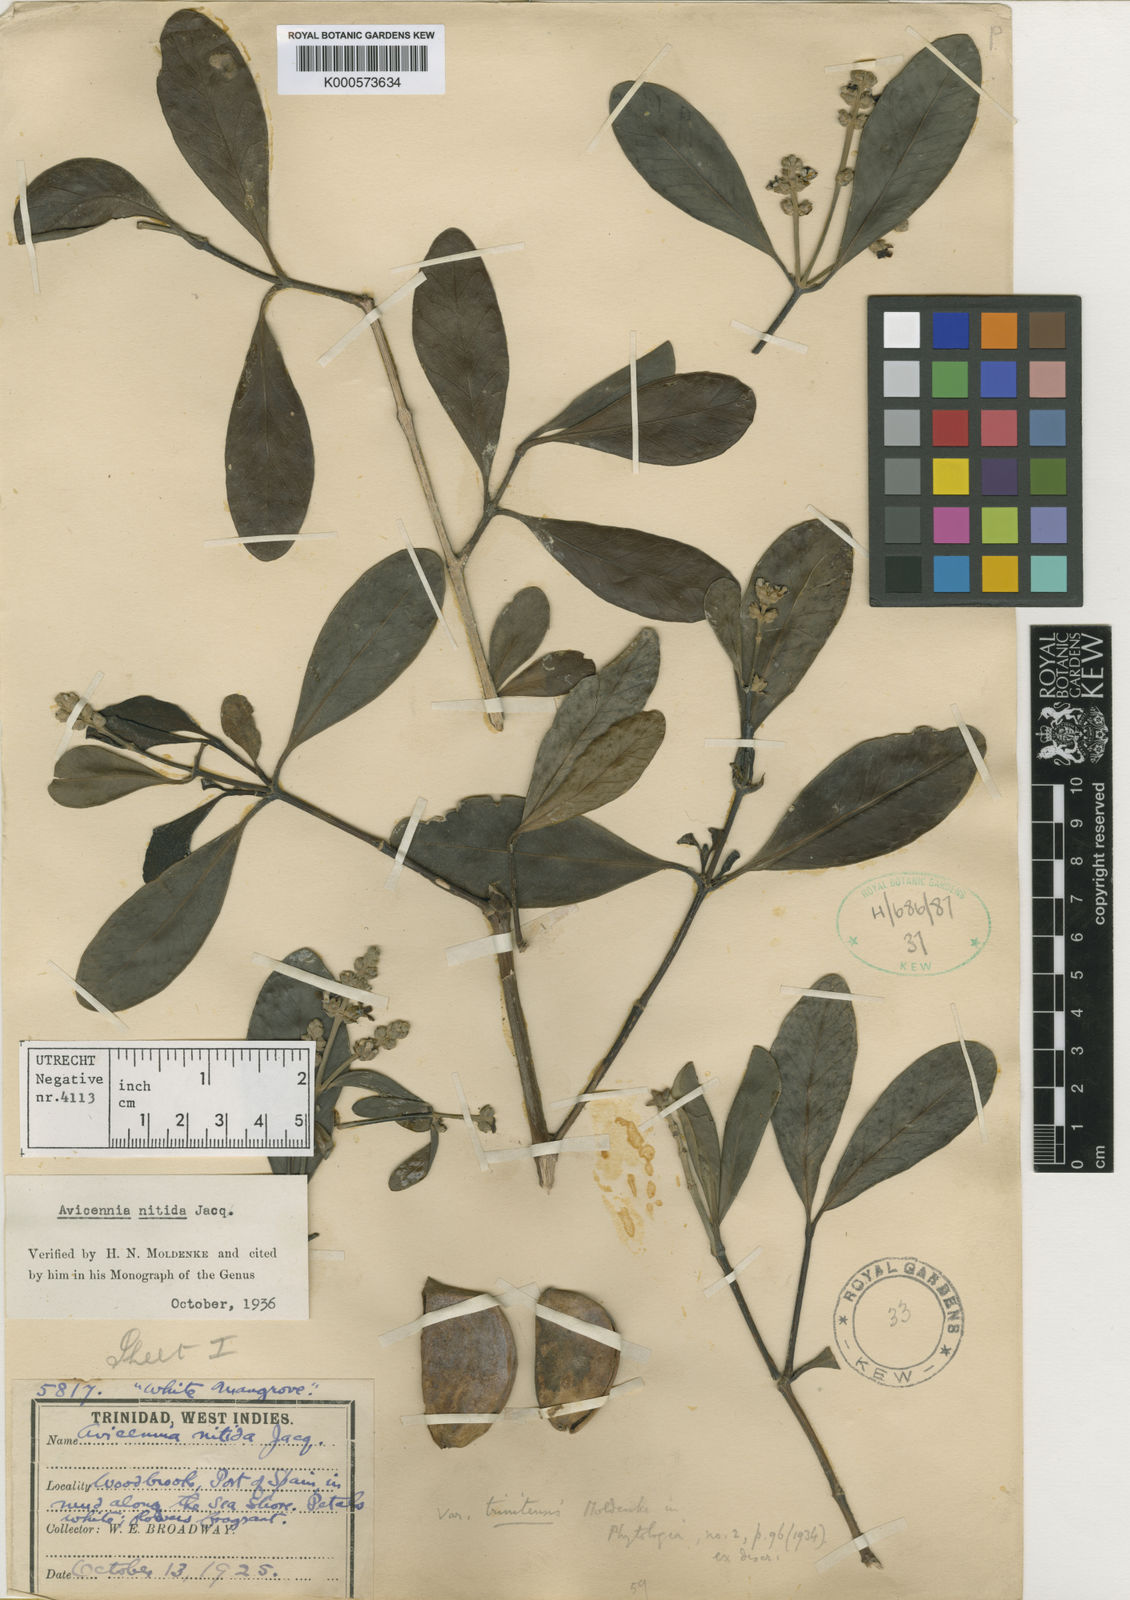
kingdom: Plantae
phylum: Tracheophyta
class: Magnoliopsida
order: Lamiales
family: Acanthaceae
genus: Avicennia
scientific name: Avicennia germinans
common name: Black mangrove
